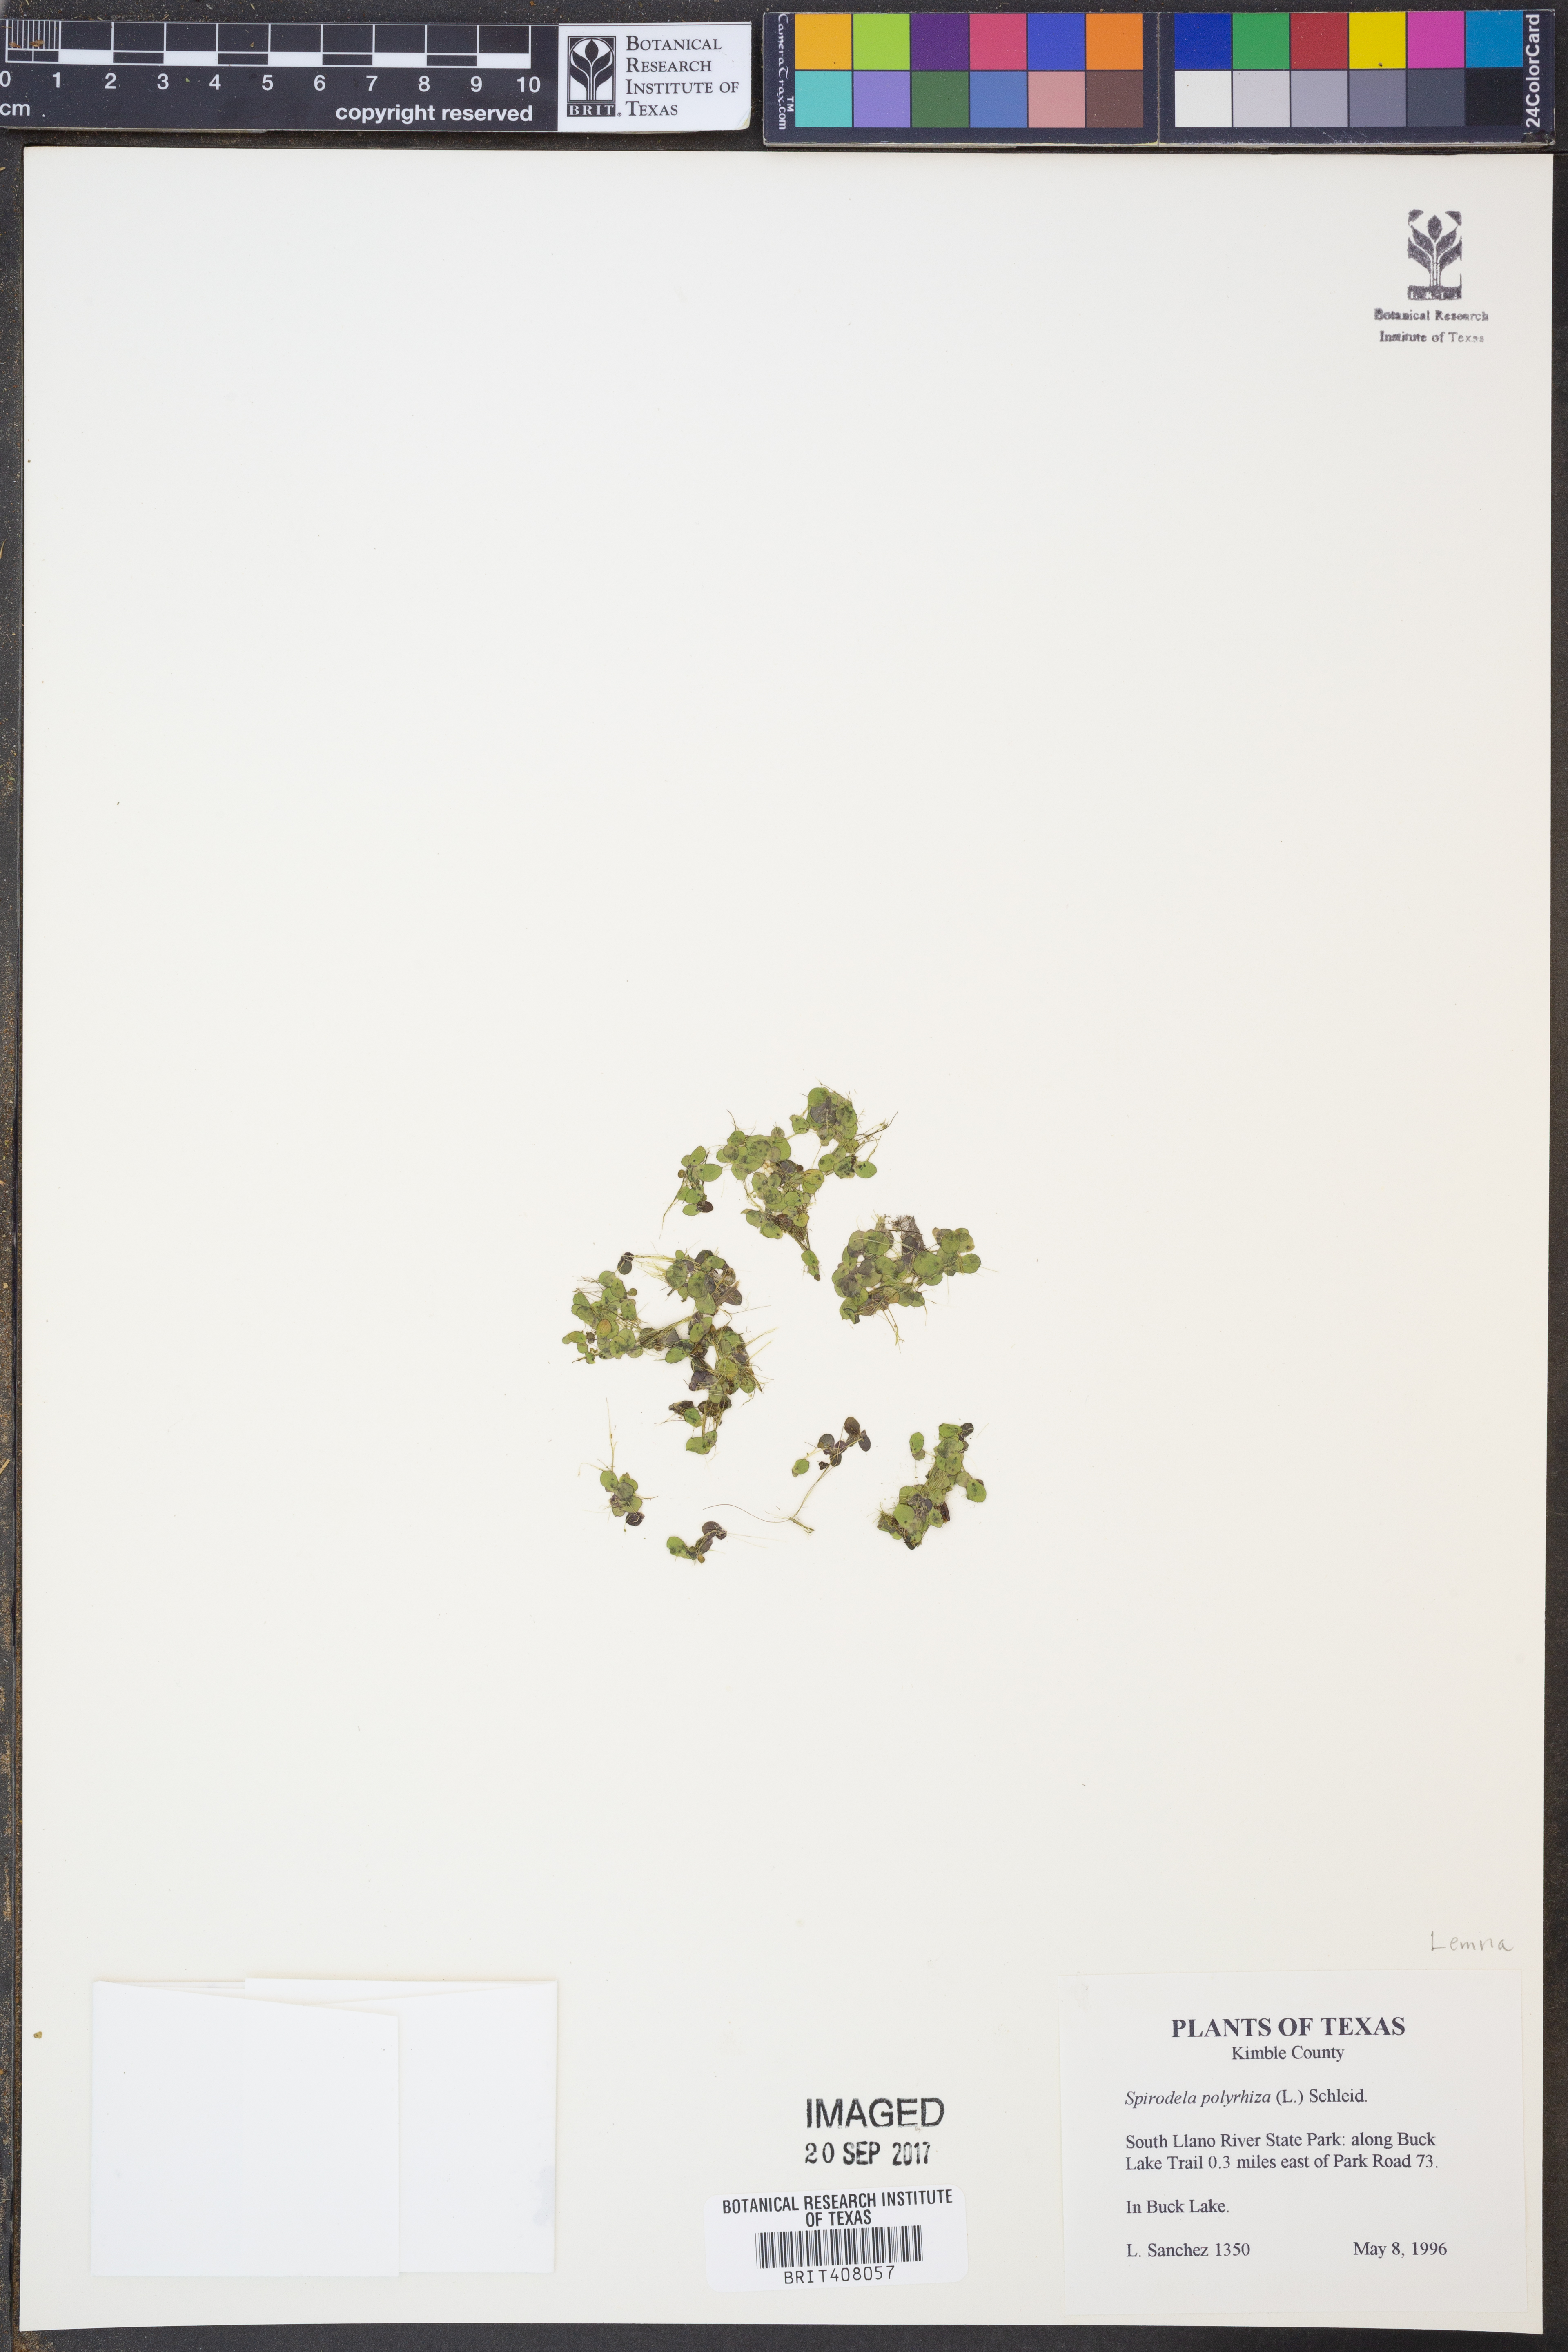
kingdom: Plantae
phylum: Tracheophyta
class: Liliopsida
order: Alismatales
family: Araceae
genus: Spirodela
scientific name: Spirodela polyrhiza
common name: Great duckweed
